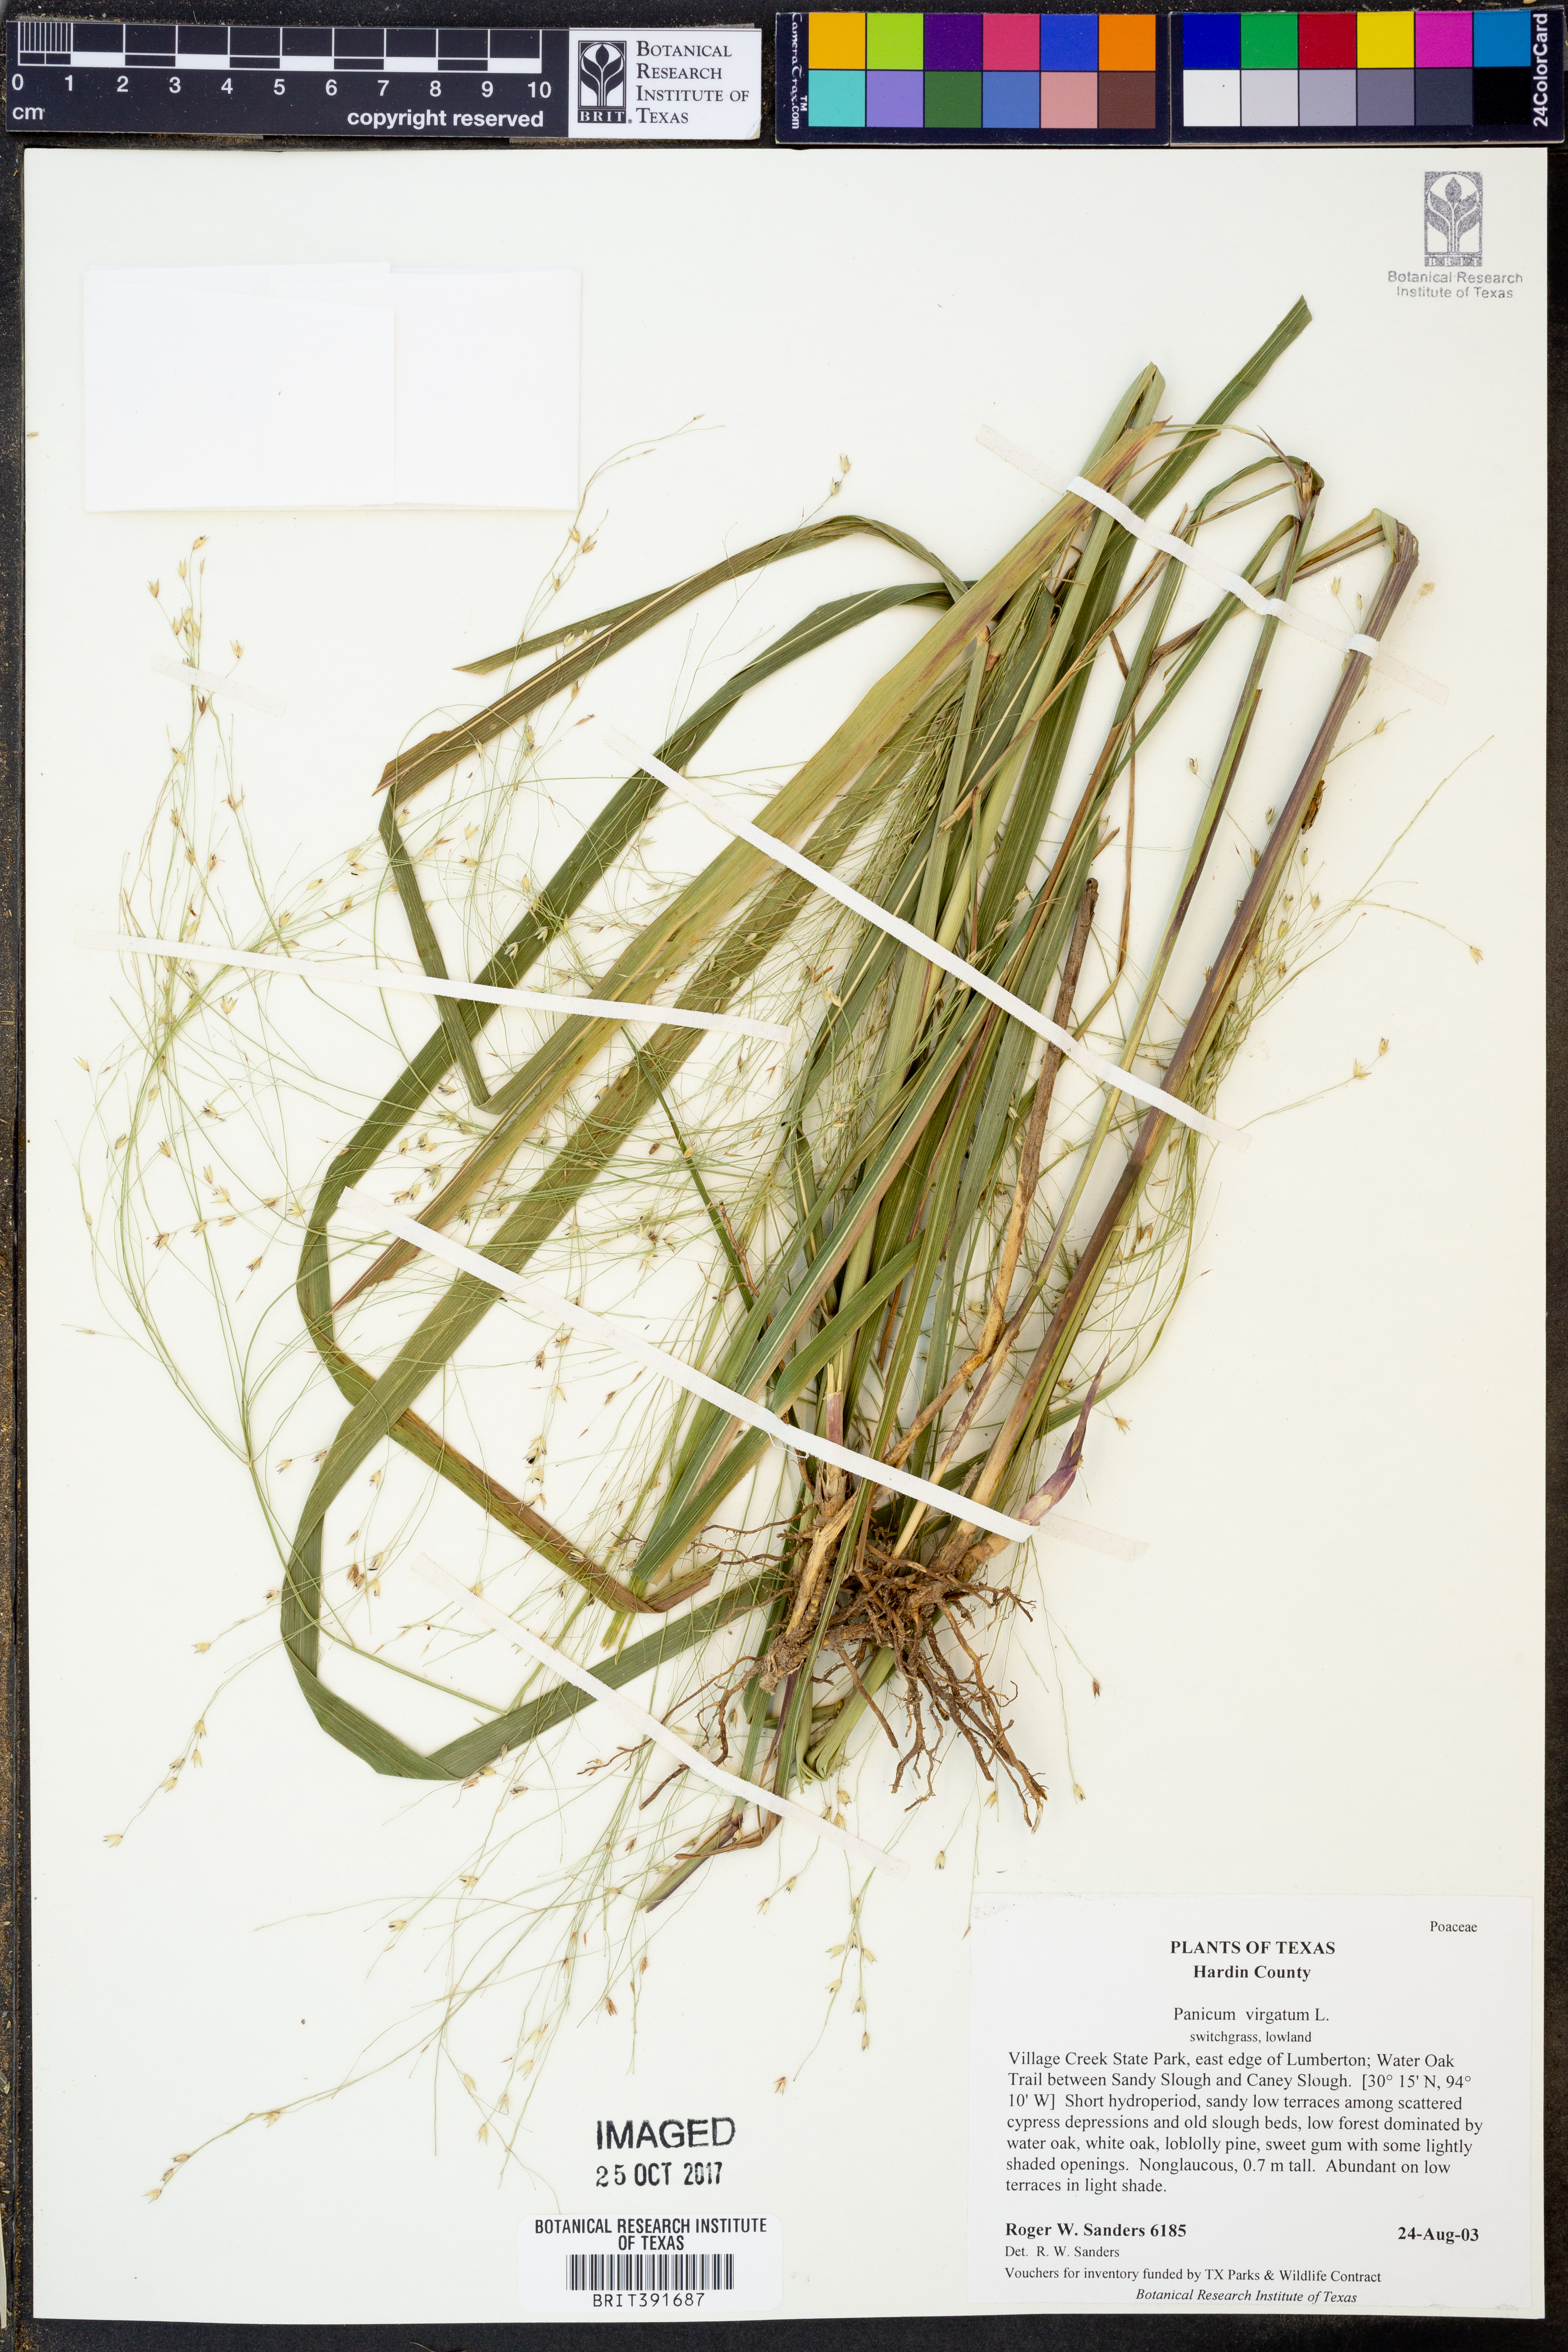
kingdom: Plantae
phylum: Tracheophyta
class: Liliopsida
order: Poales
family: Poaceae
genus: Panicum
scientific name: Panicum virgatum
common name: Switchgrass
